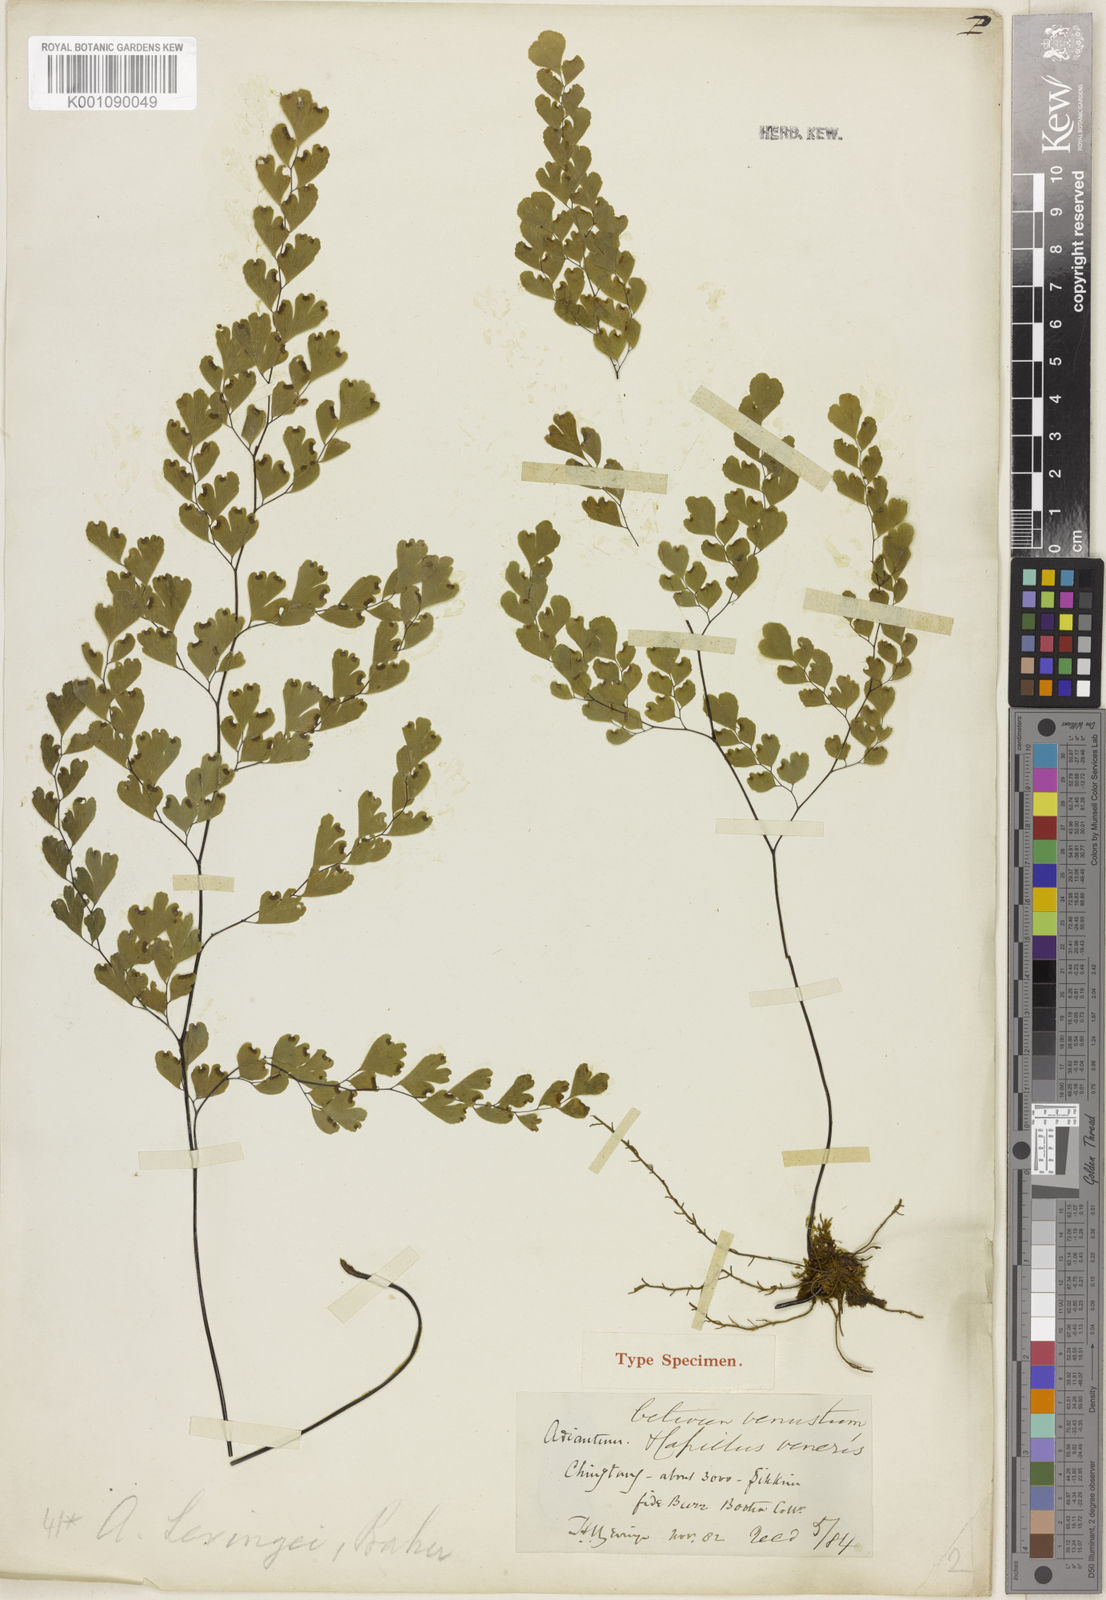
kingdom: Plantae
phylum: Tracheophyta
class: Polypodiopsida
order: Polypodiales
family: Pteridaceae
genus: Adiantum
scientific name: Adiantum wattii
